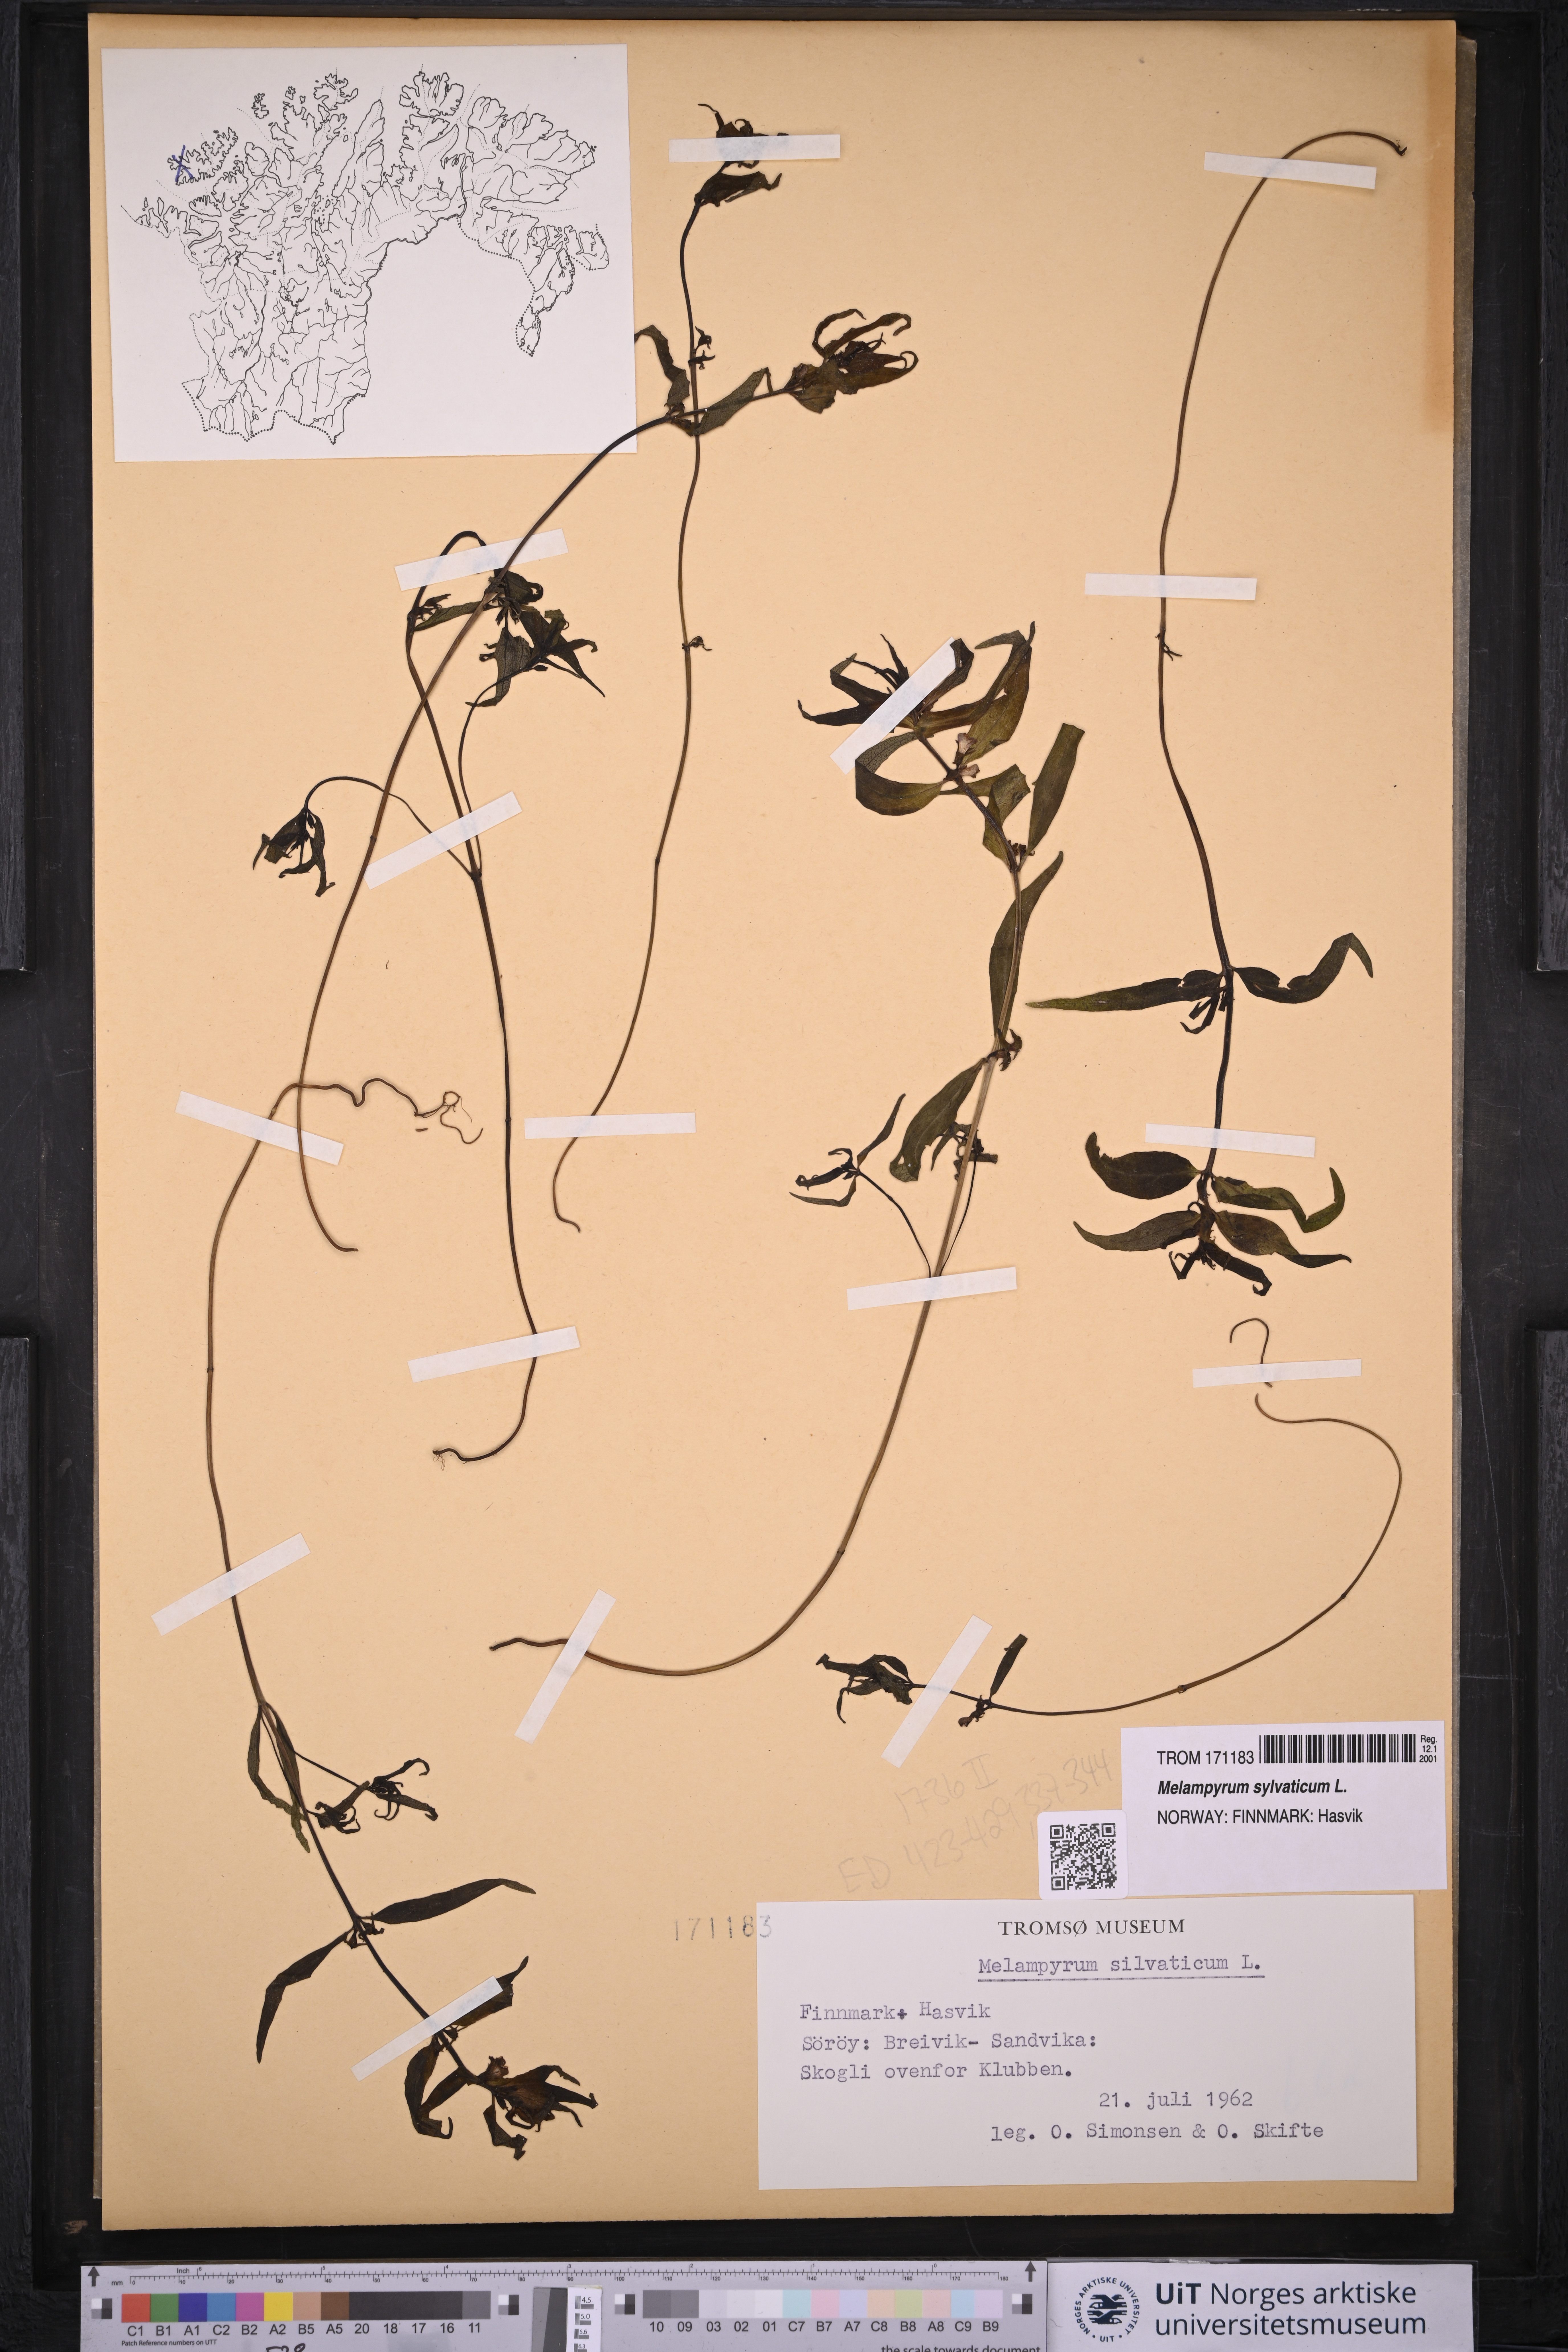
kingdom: Plantae
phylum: Tracheophyta
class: Magnoliopsida
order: Lamiales
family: Orobanchaceae
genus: Melampyrum
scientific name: Melampyrum sylvaticum
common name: Small cow-wheat
